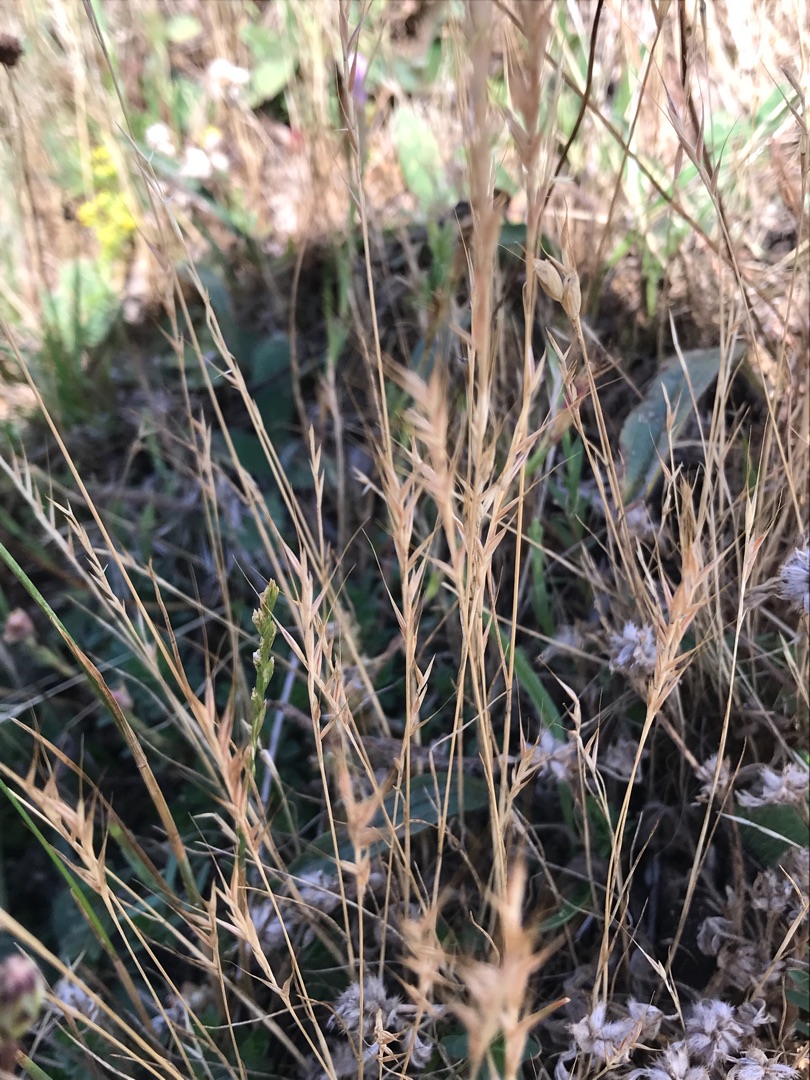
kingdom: Plantae
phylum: Tracheophyta
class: Liliopsida
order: Poales
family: Poaceae
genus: Festuca
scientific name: Festuca bromoides
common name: Langstakket væselhale
